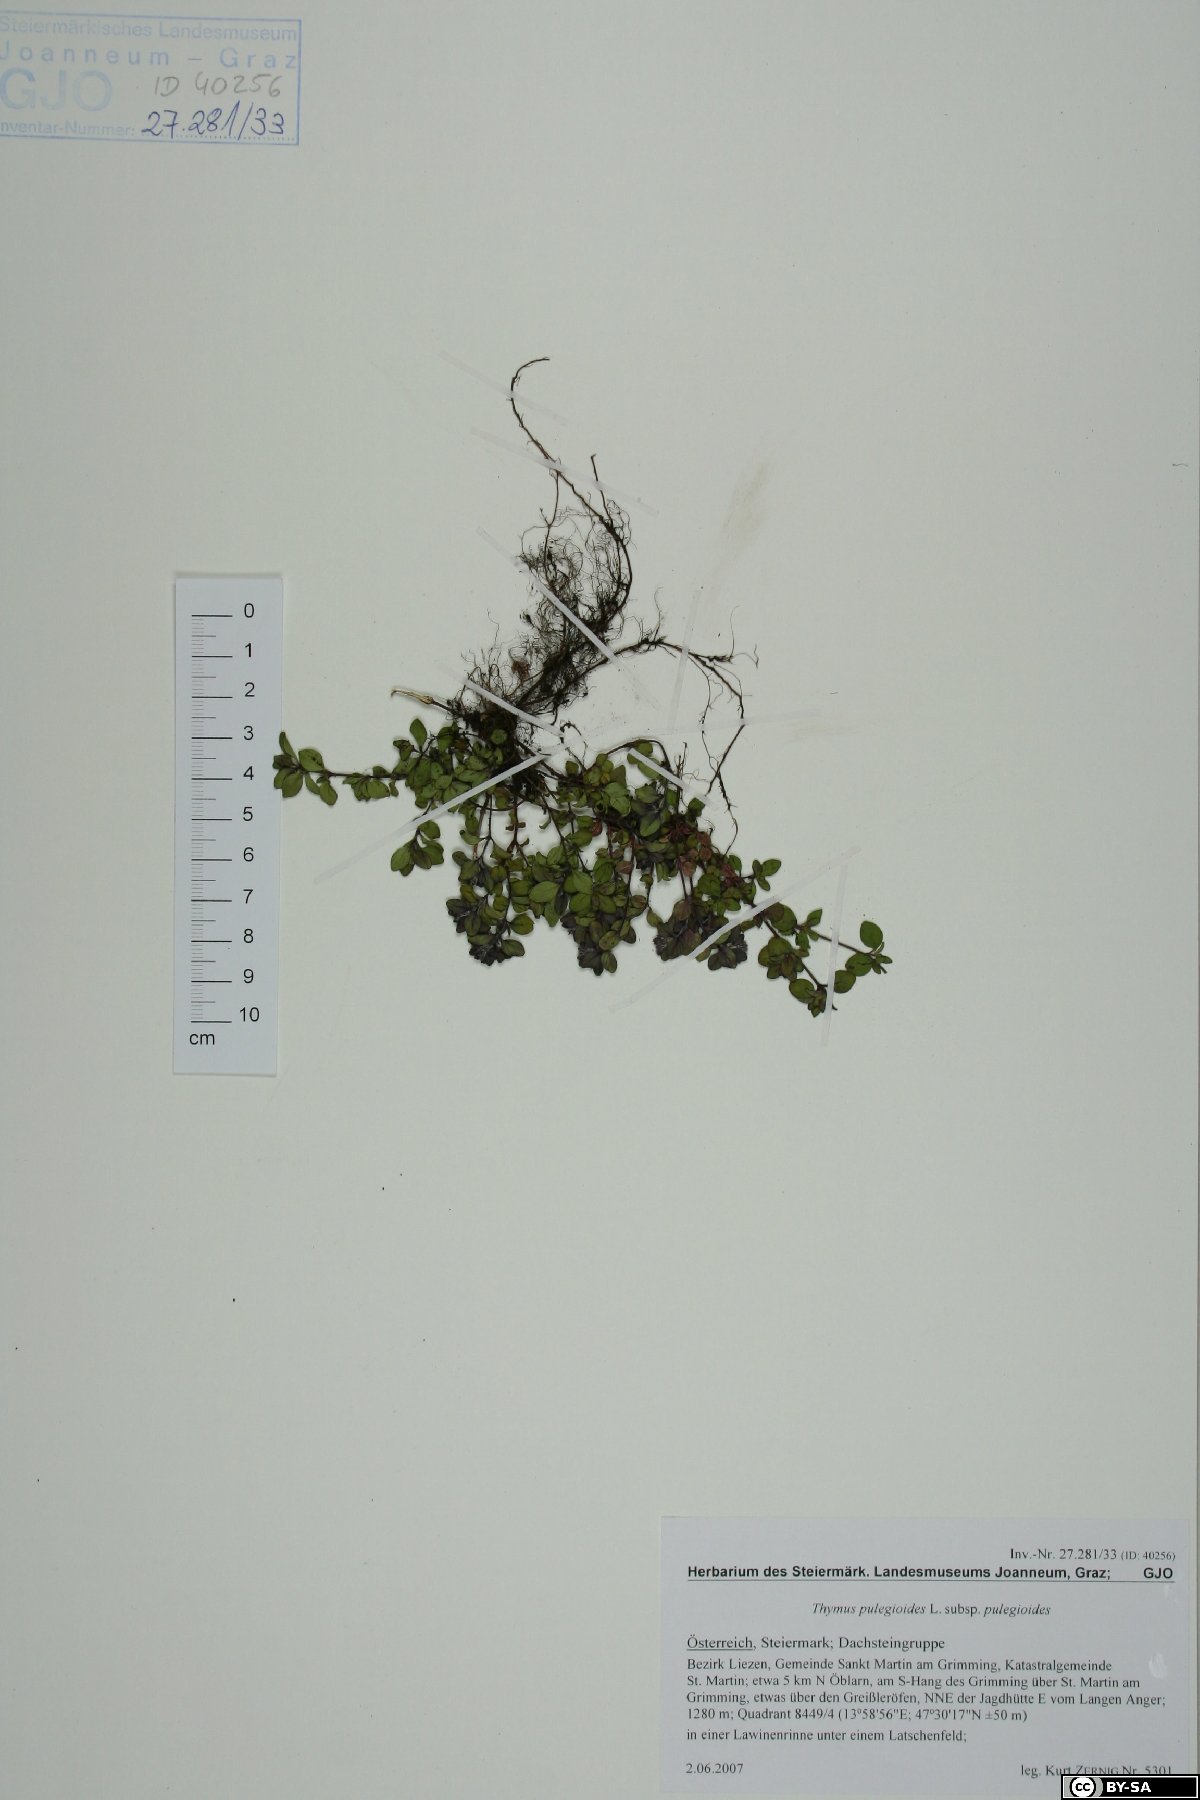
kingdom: Plantae
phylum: Tracheophyta
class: Magnoliopsida
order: Lamiales
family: Lamiaceae
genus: Thymus
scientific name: Thymus pulegioides
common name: Large thyme
